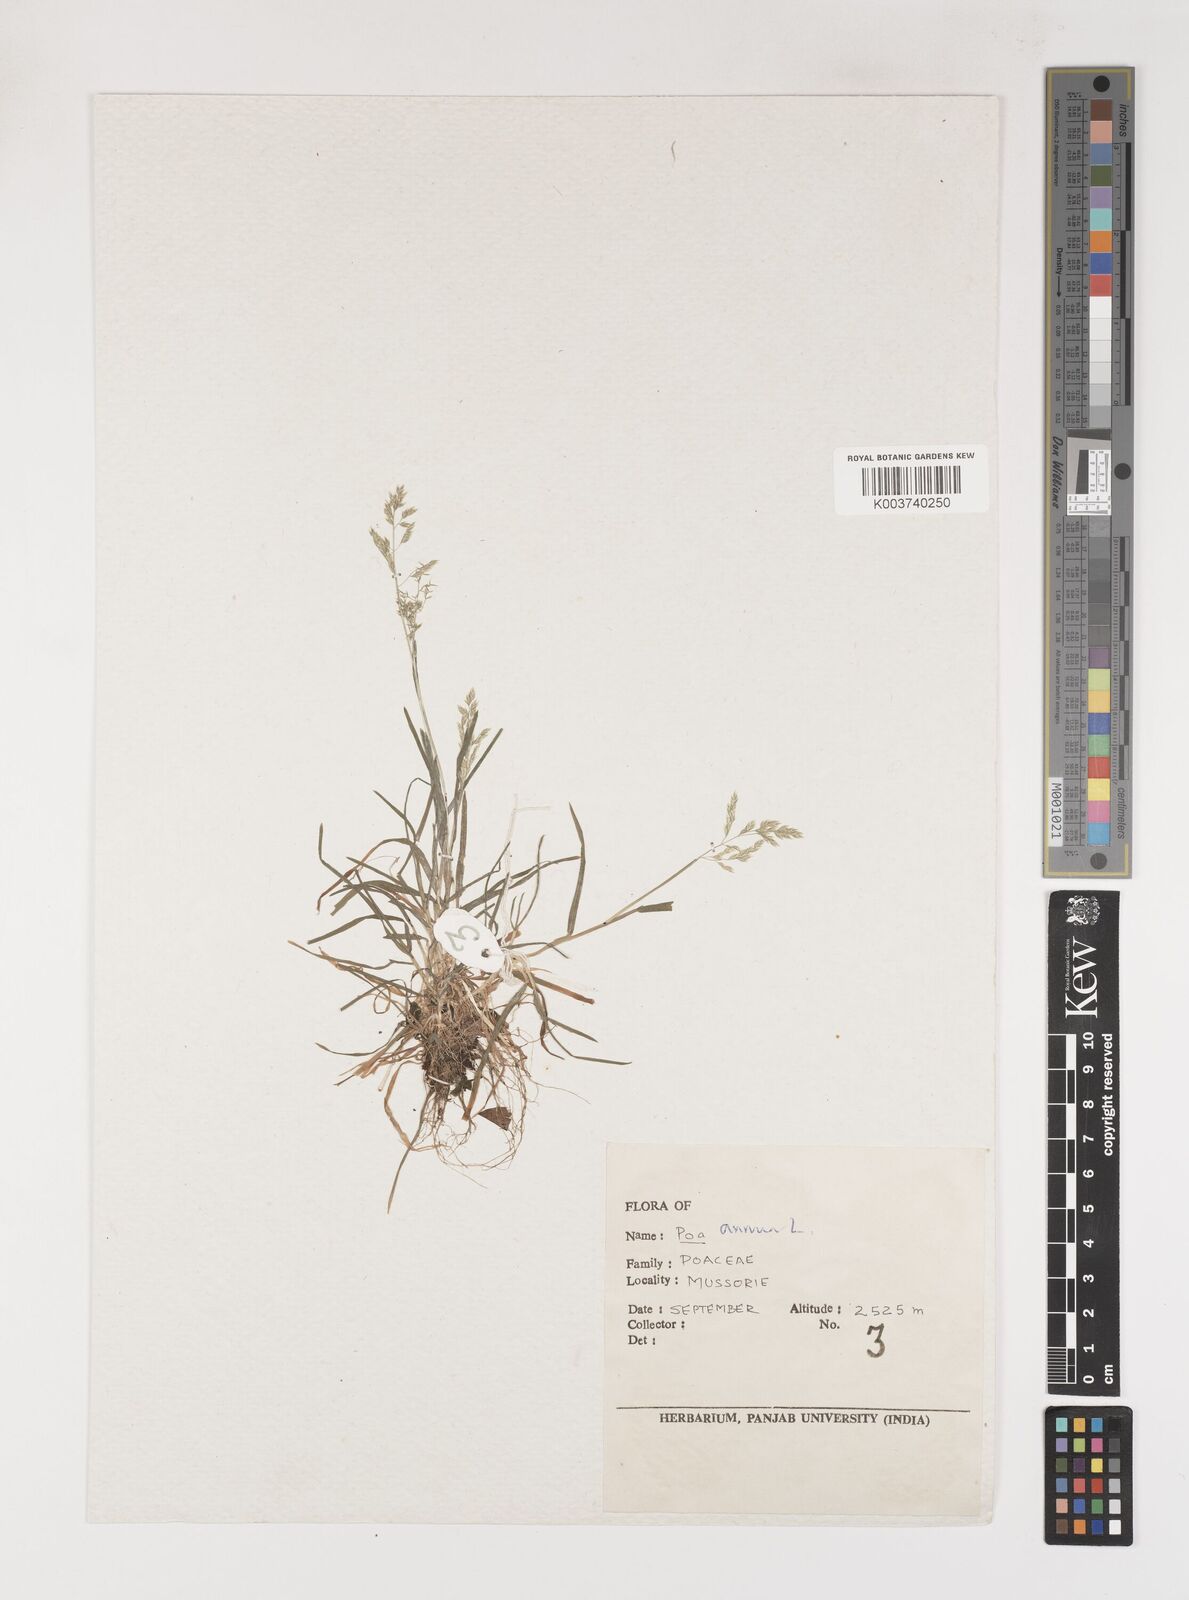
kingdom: Plantae
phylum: Tracheophyta
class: Liliopsida
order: Poales
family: Poaceae
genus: Poa
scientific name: Poa annua
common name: Annual bluegrass
